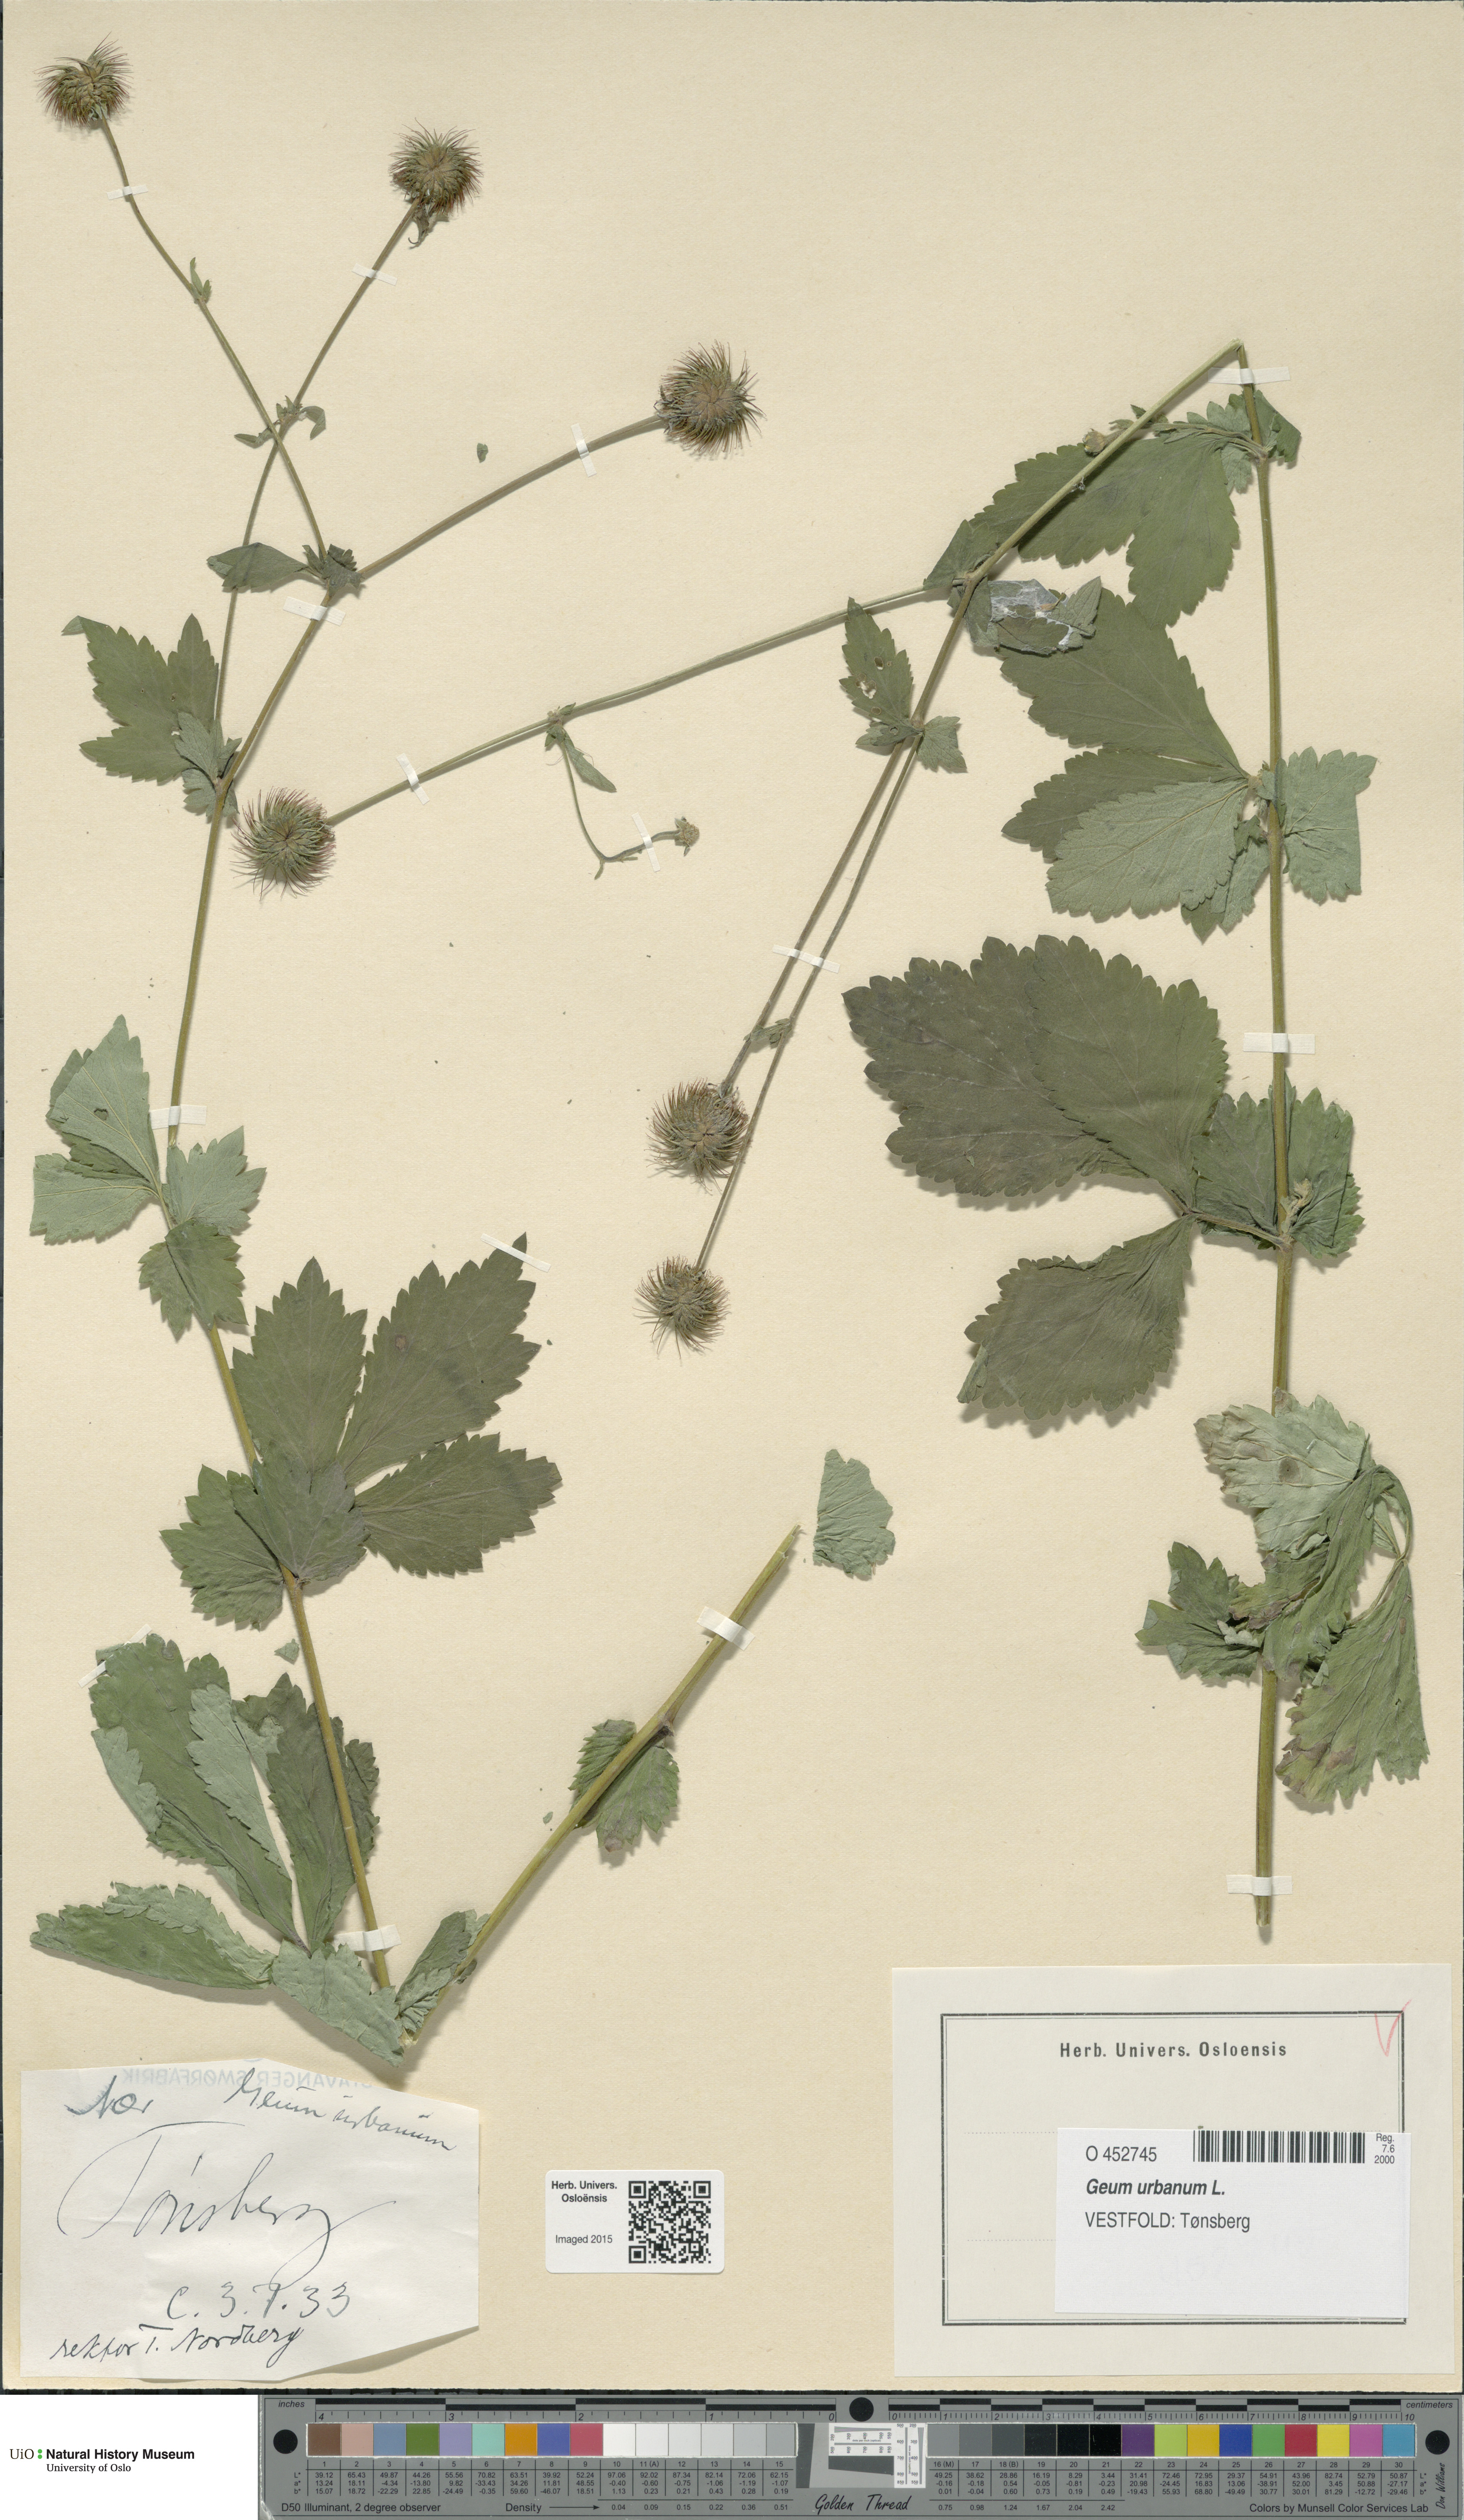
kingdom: Plantae
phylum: Tracheophyta
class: Magnoliopsida
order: Rosales
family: Rosaceae
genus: Geum
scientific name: Geum urbanum
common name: Wood avens
